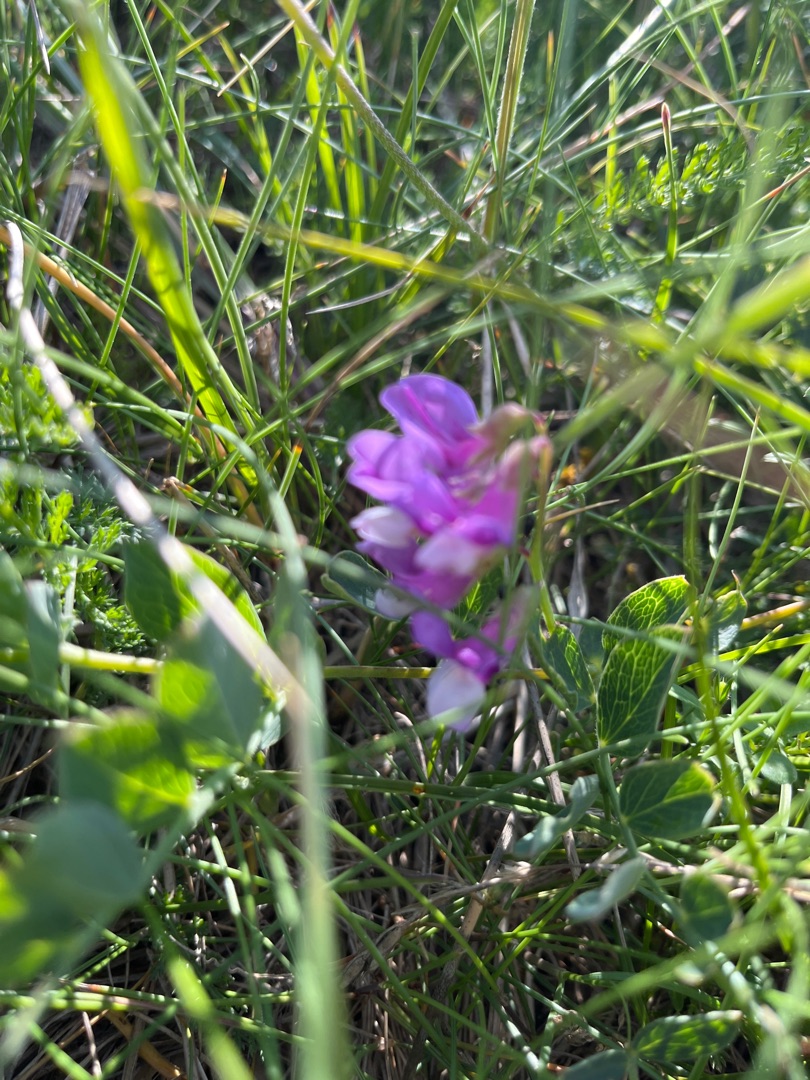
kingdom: Plantae
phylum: Tracheophyta
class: Magnoliopsida
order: Fabales
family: Fabaceae
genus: Lathyrus
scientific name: Lathyrus japonicus
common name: Strand-fladbælg
